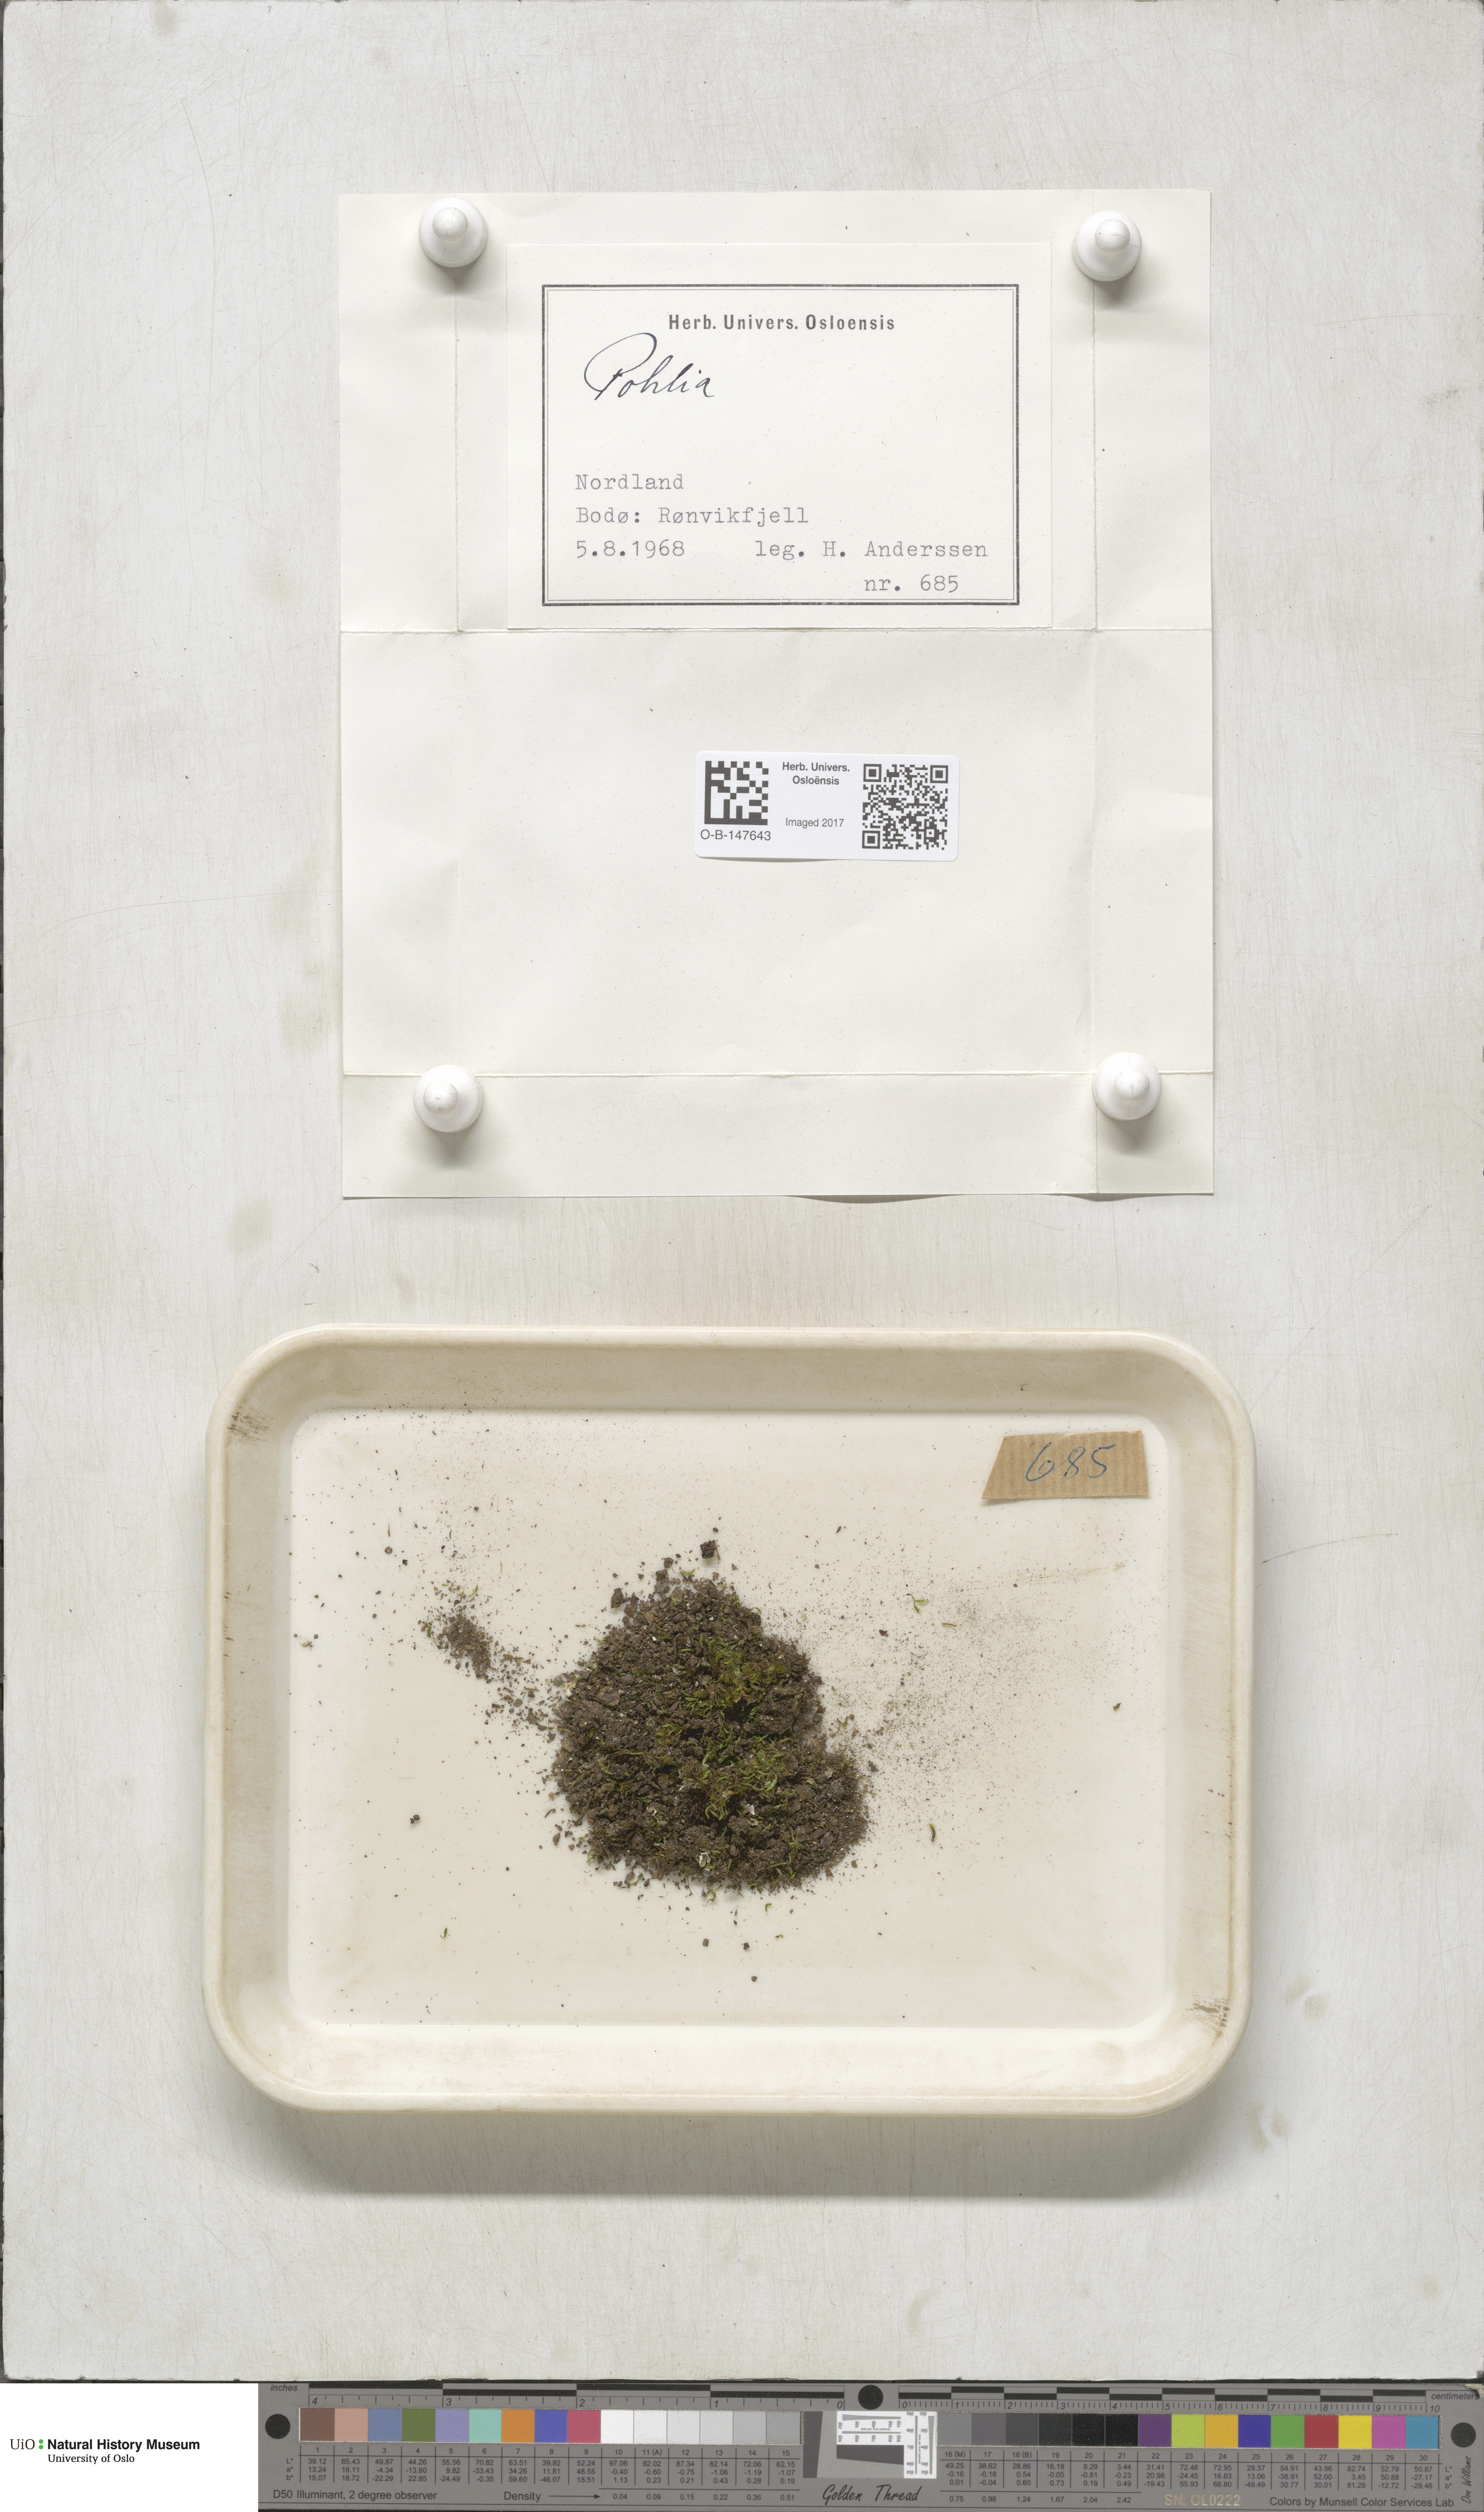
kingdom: Plantae
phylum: Bryophyta
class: Bryopsida
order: Bryales
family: Mniaceae
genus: Pohlia
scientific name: Pohlia
